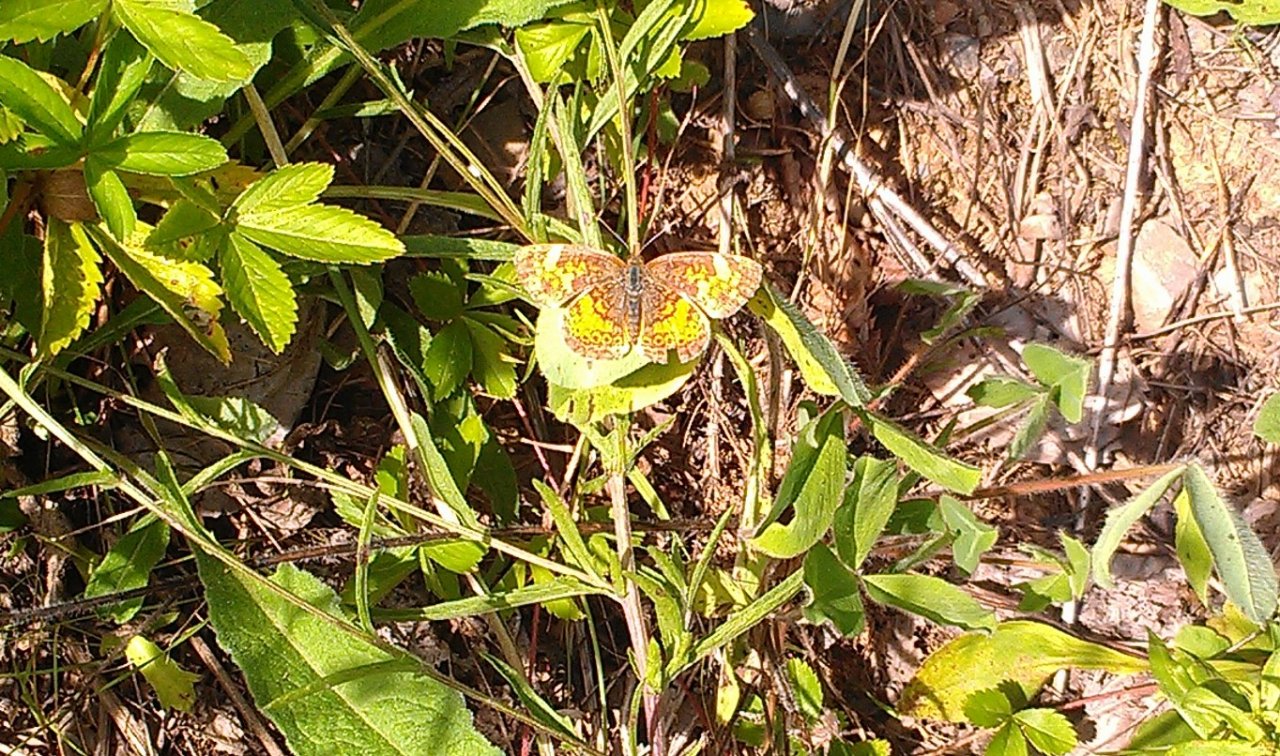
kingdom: Animalia
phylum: Arthropoda
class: Insecta
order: Lepidoptera
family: Nymphalidae
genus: Phyciodes
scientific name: Phyciodes tharos
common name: Northern Crescent
